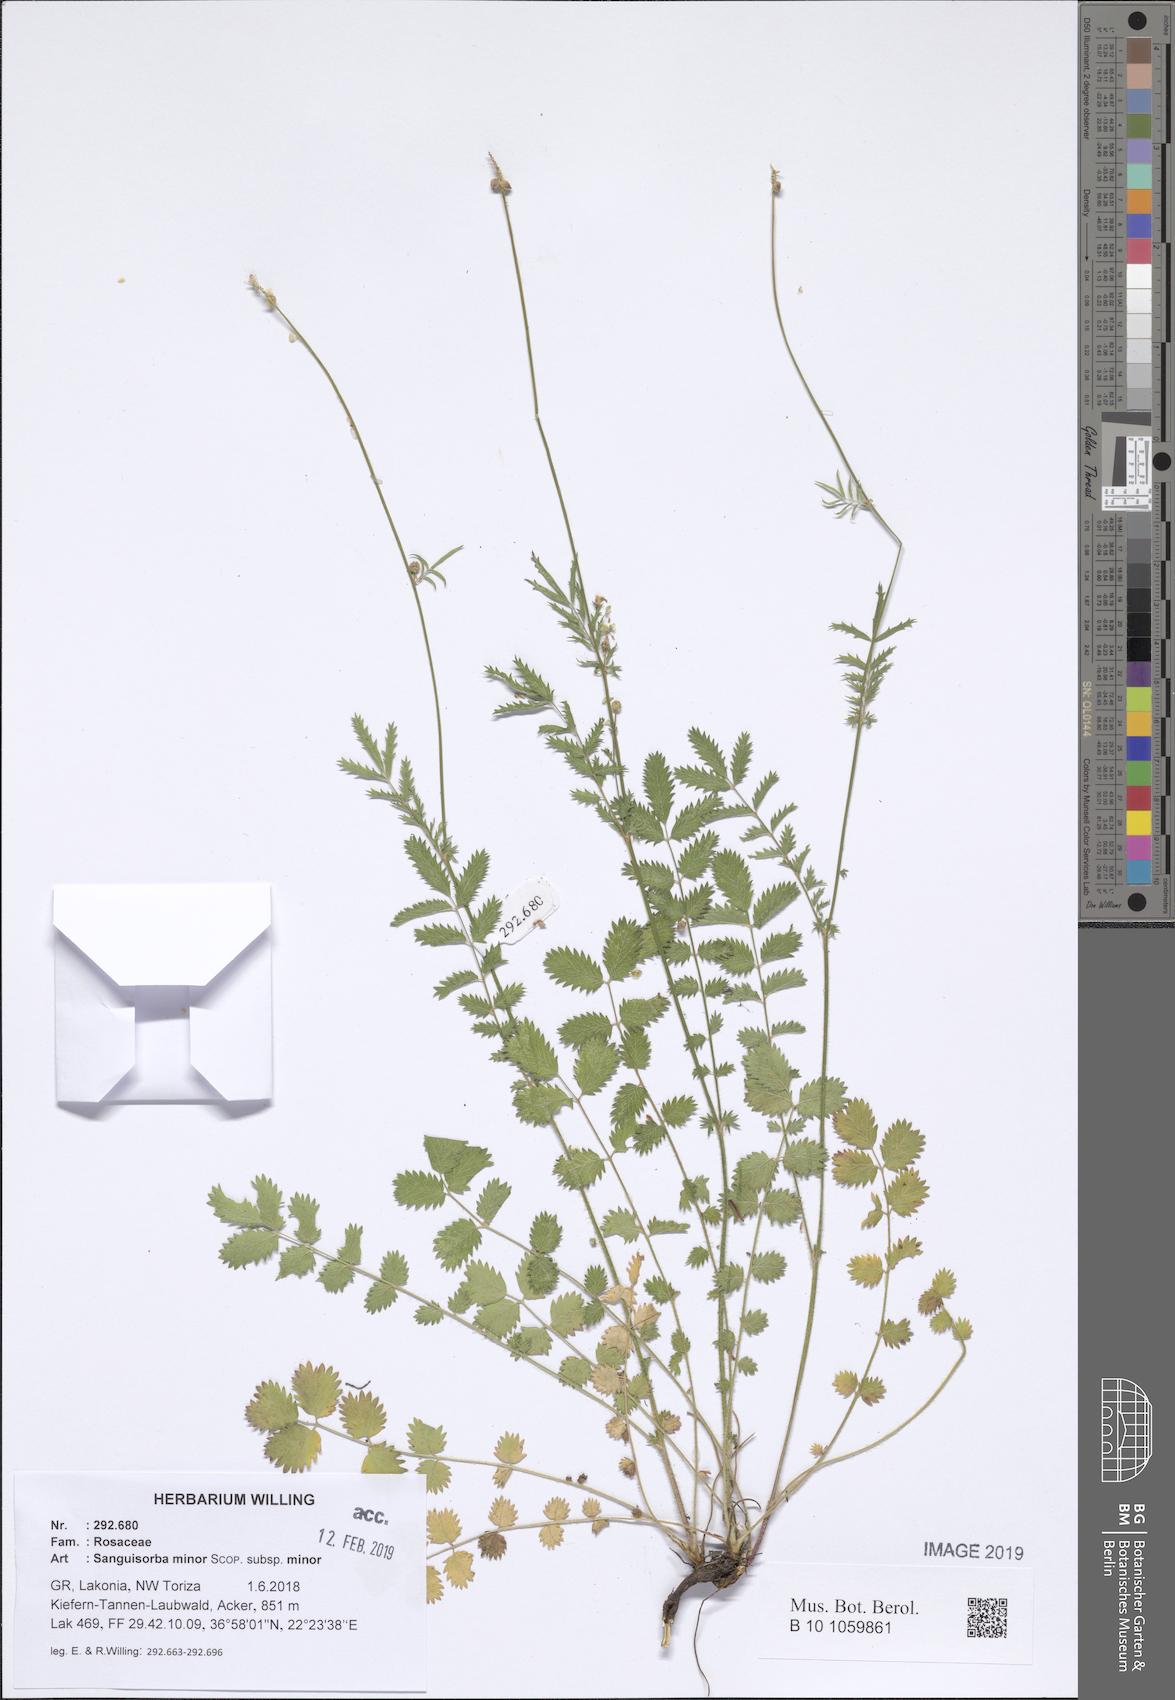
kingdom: Plantae
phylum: Tracheophyta
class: Magnoliopsida
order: Rosales
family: Rosaceae
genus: Poterium
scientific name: Poterium sanguisorba
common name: Salad burnet
